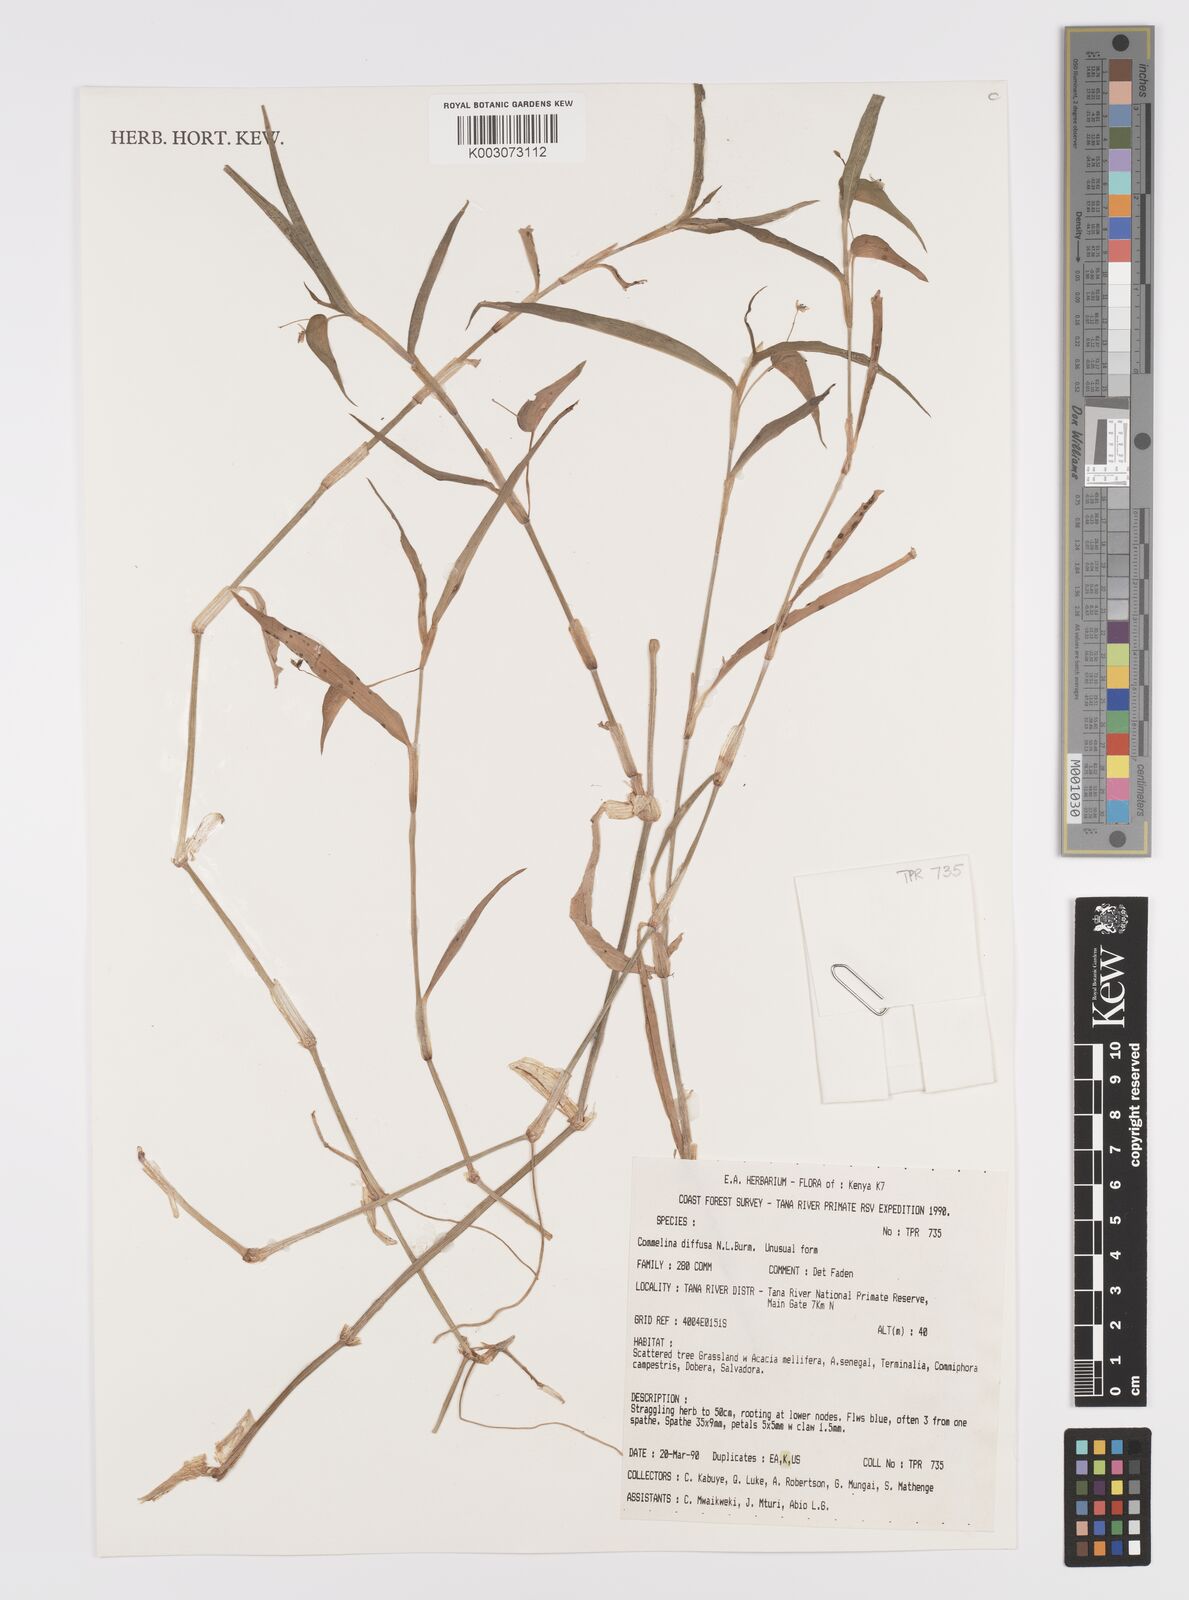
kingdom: Plantae
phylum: Tracheophyta
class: Liliopsida
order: Commelinales
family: Commelinaceae
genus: Commelina
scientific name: Commelina diffusa
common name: Climbing dayflower
